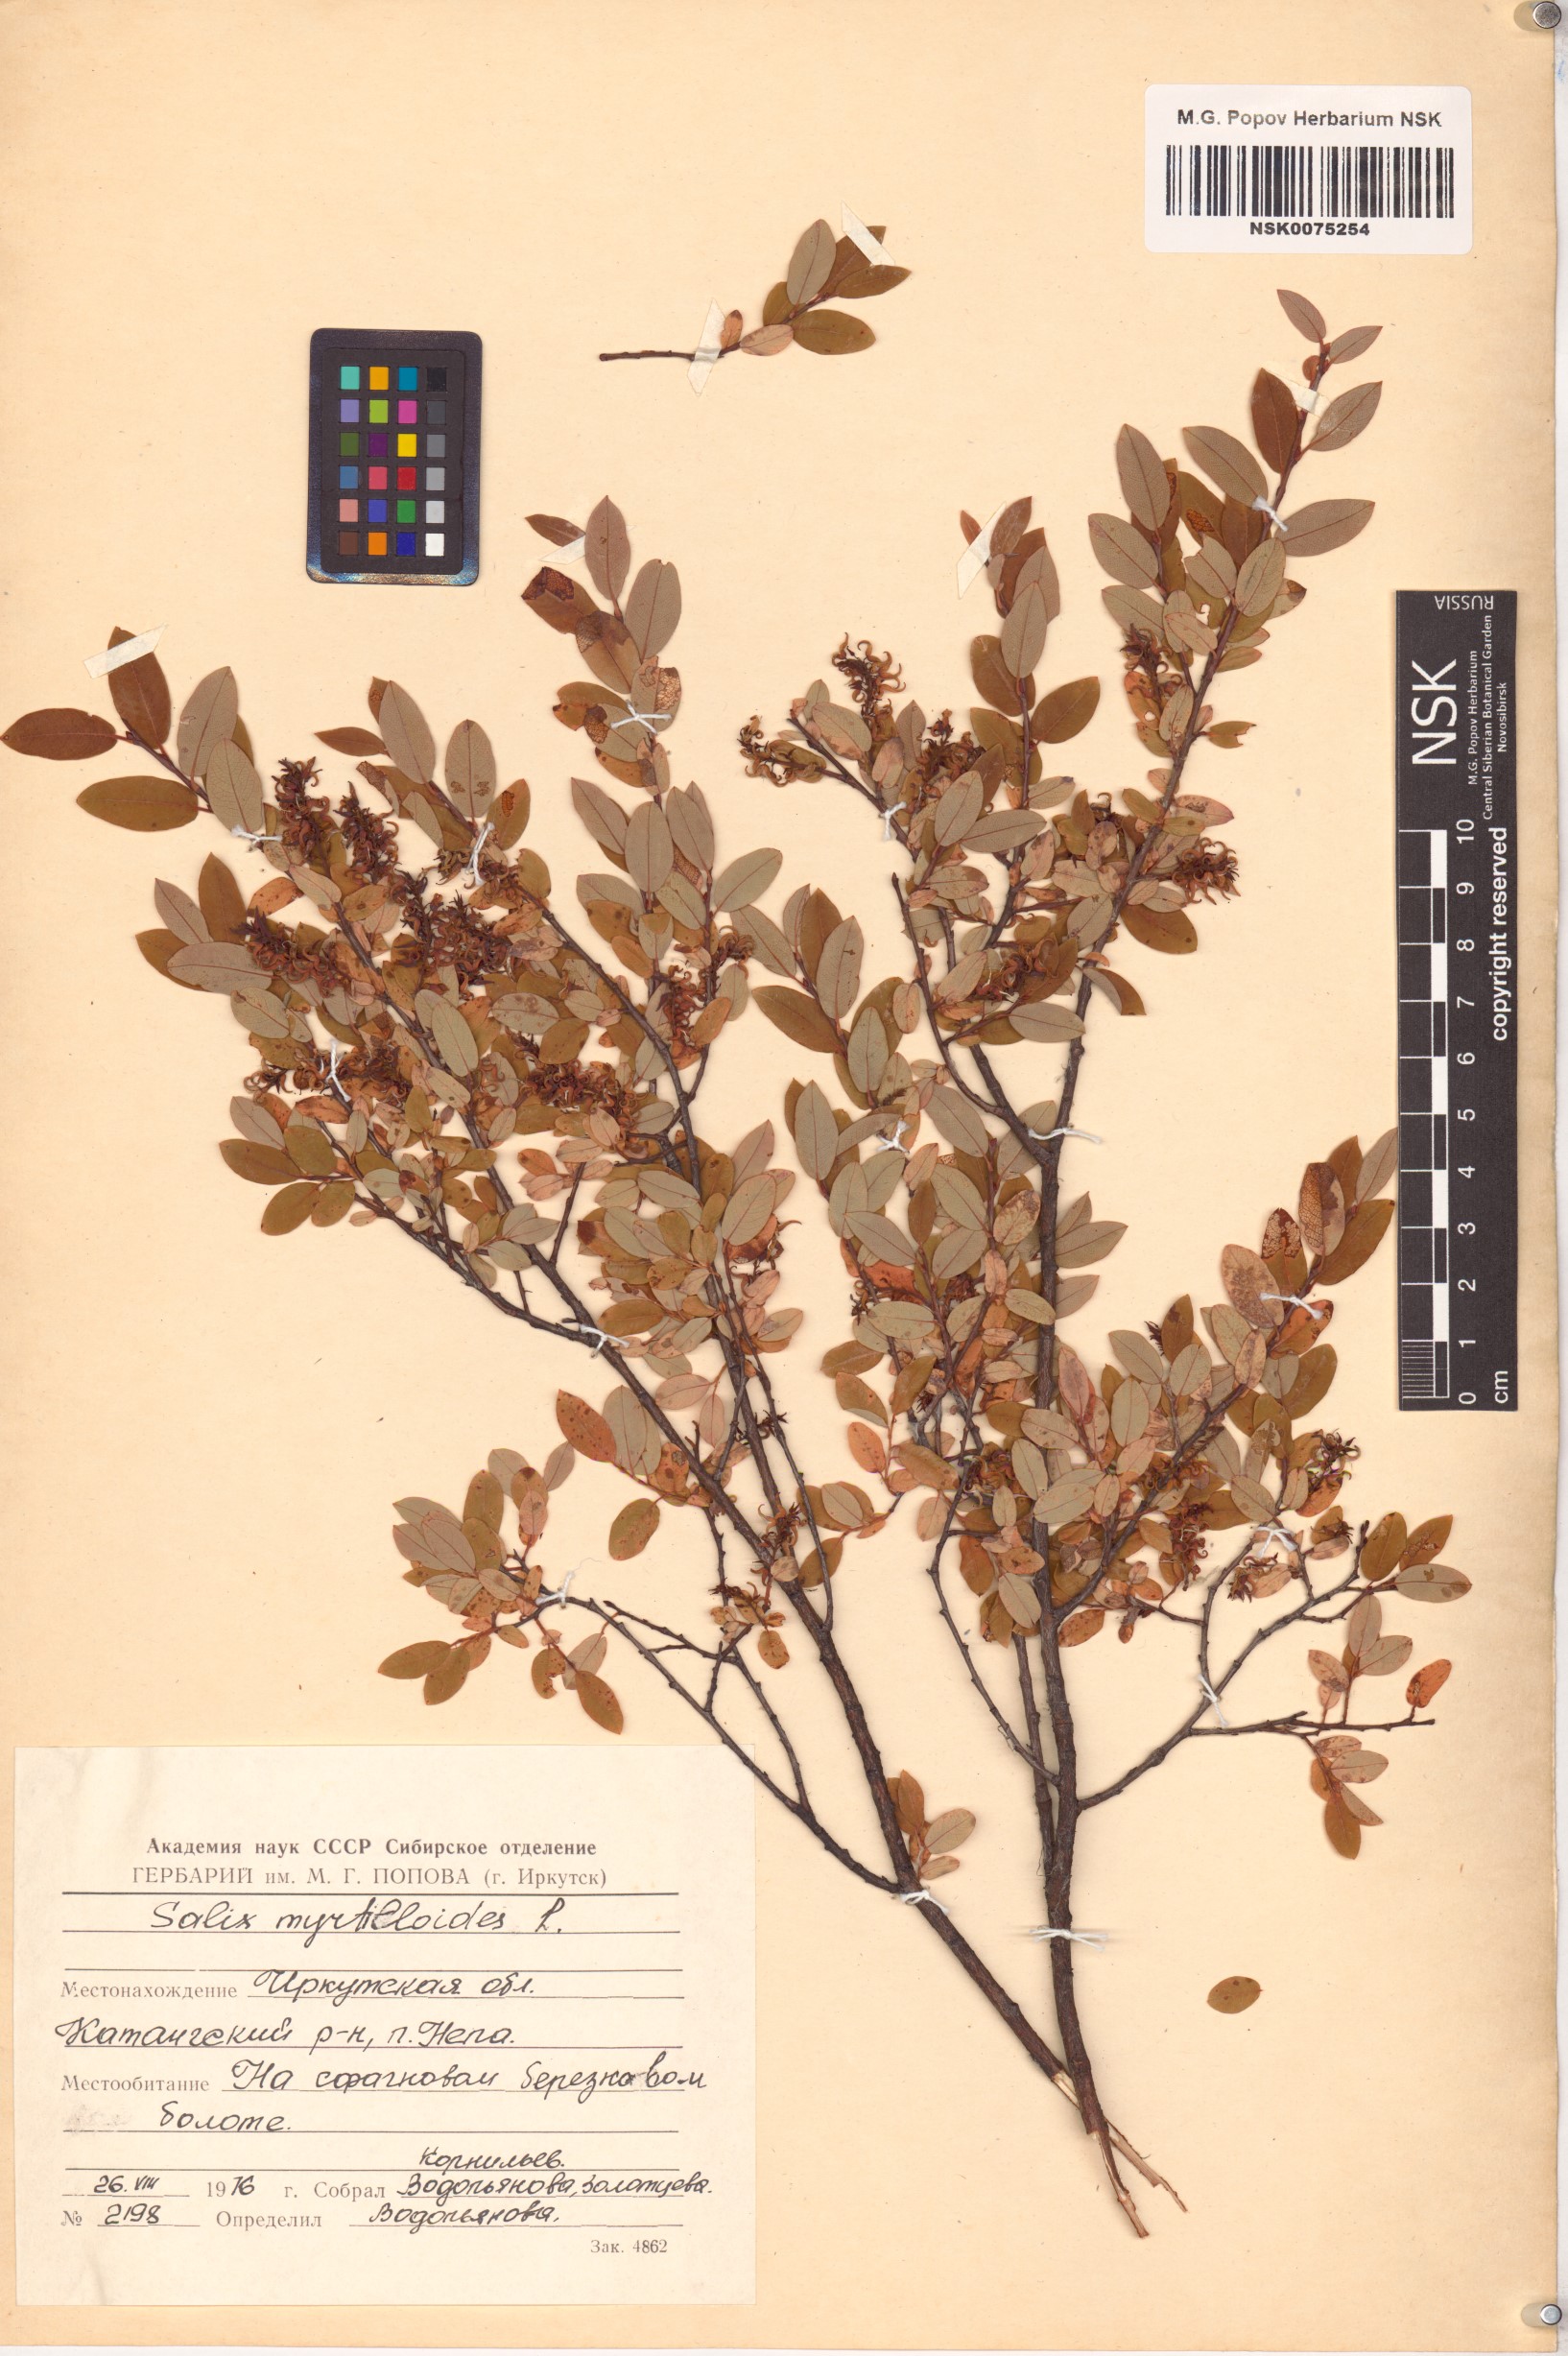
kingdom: Plantae
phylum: Tracheophyta
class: Magnoliopsida
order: Malpighiales
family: Salicaceae
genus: Salix
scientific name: Salix myrtilloides
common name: Myrtle-leaved willow
